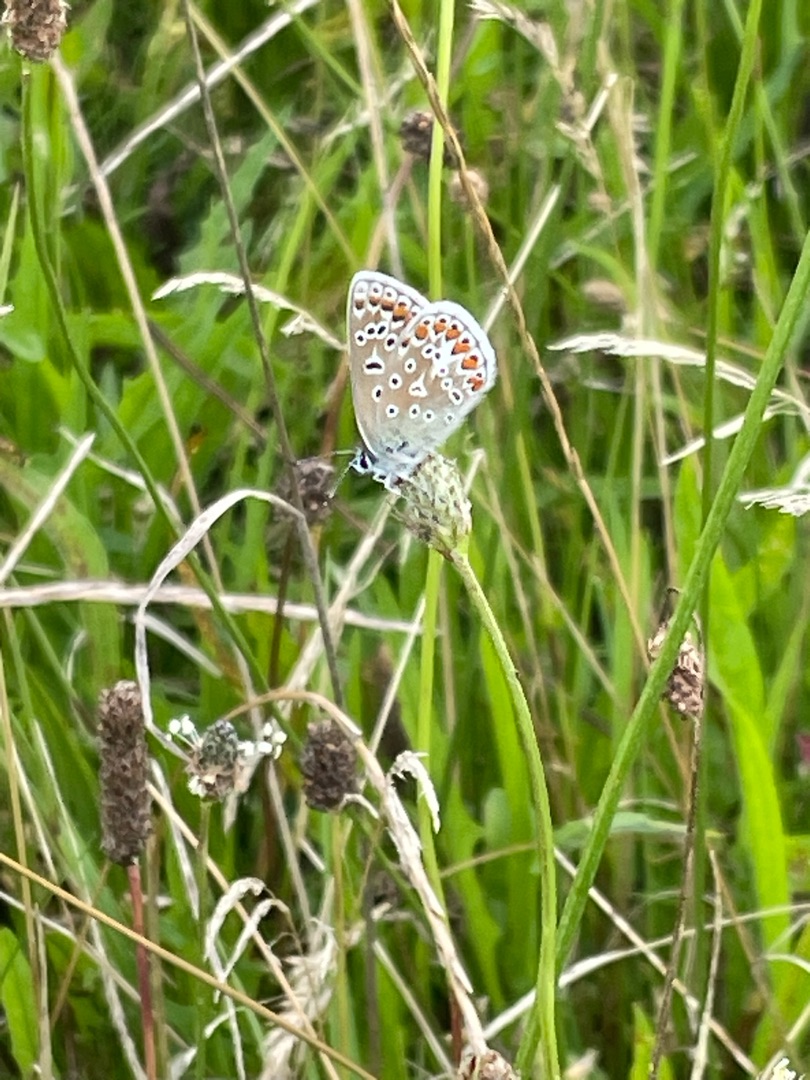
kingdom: Animalia
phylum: Arthropoda
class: Insecta
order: Lepidoptera
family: Lycaenidae
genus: Polyommatus
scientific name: Polyommatus icarus
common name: Almindelig blåfugl
